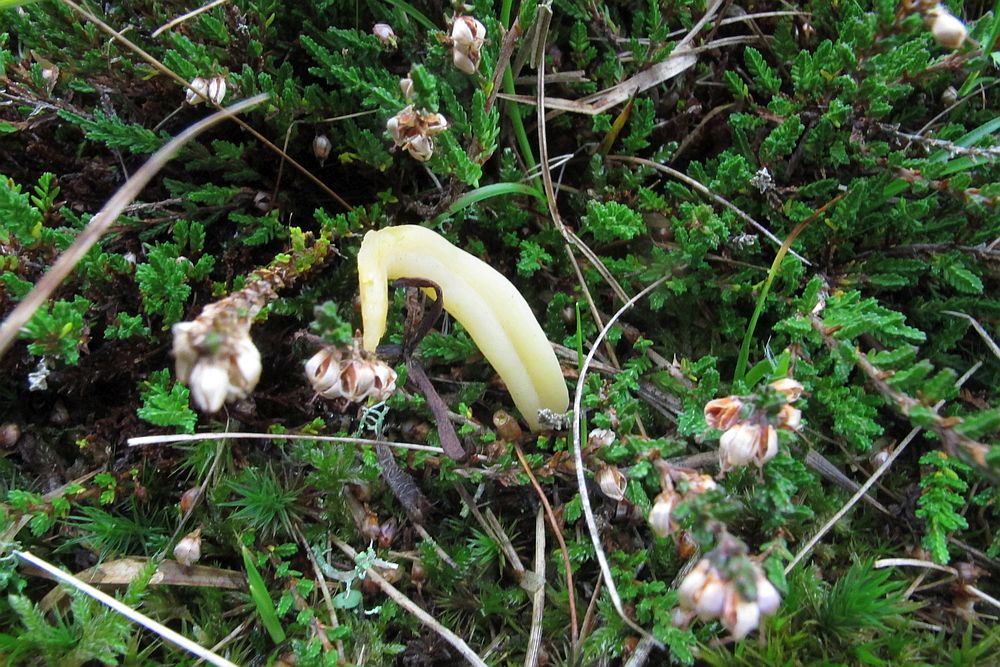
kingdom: Fungi
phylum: Basidiomycota
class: Agaricomycetes
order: Agaricales
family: Clavariaceae
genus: Clavaria
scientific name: Clavaria argillacea
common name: lerfarvet køllesvamp
